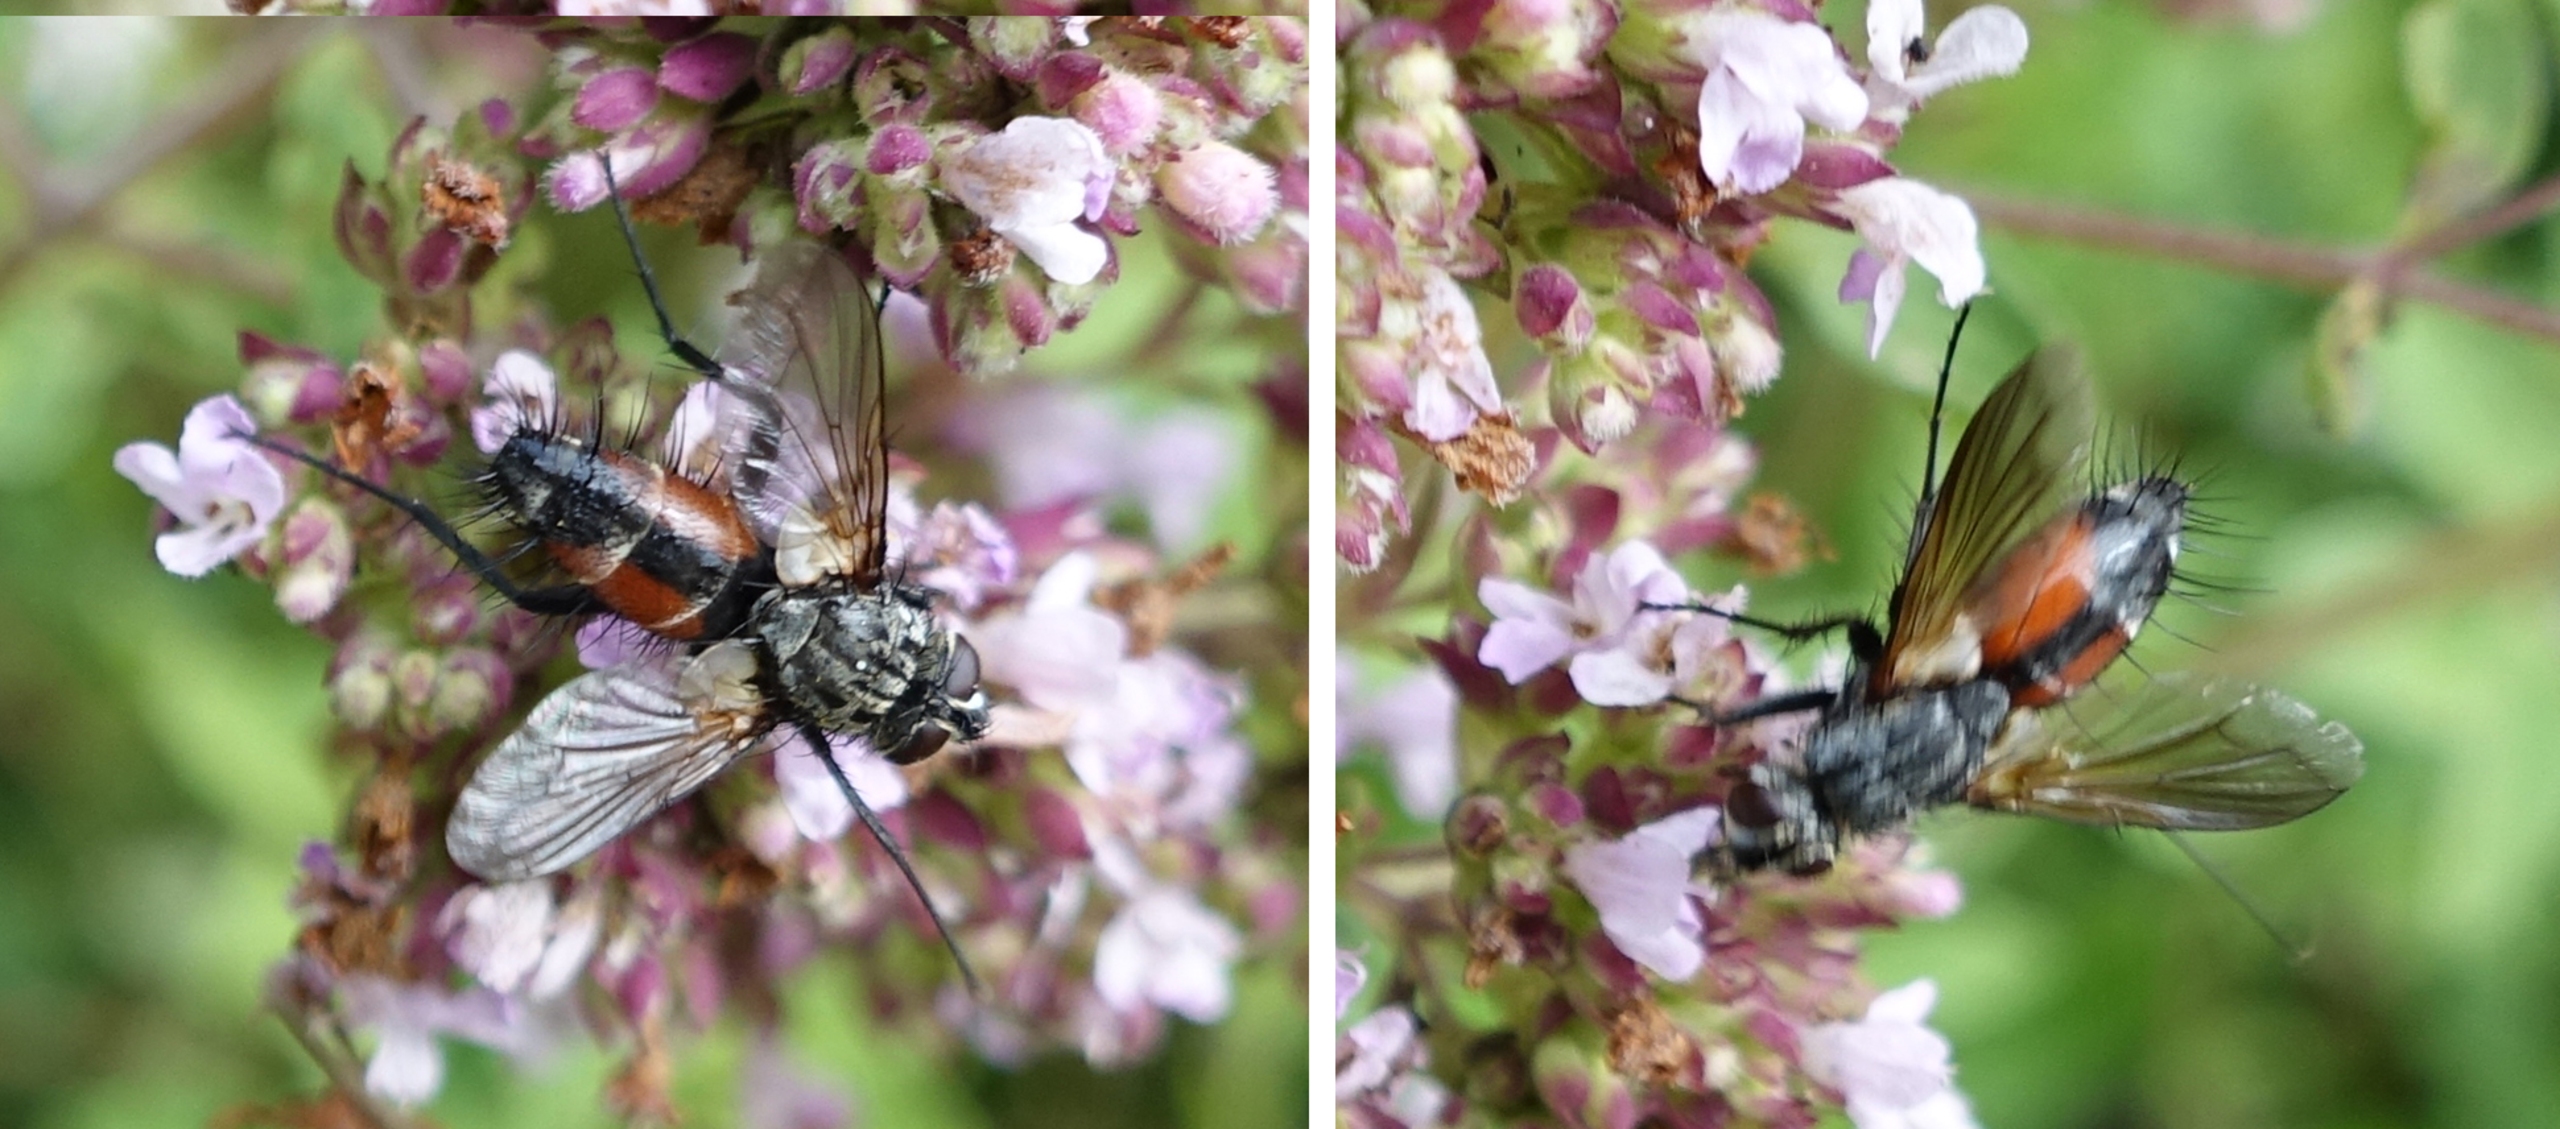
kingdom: Animalia
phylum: Arthropoda
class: Insecta
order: Diptera
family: Tachinidae
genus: Eriothrix
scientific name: Eriothrix rufomaculatus
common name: Rød snylteflue
